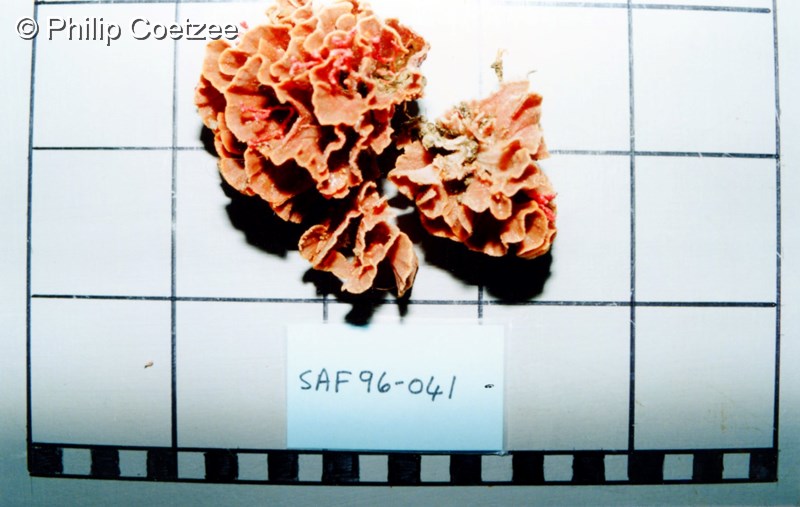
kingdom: Animalia
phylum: Bryozoa
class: Gymnolaemata
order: Cheilostomatida
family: Phidoloporidae
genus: Reteporella
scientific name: Reteporella
